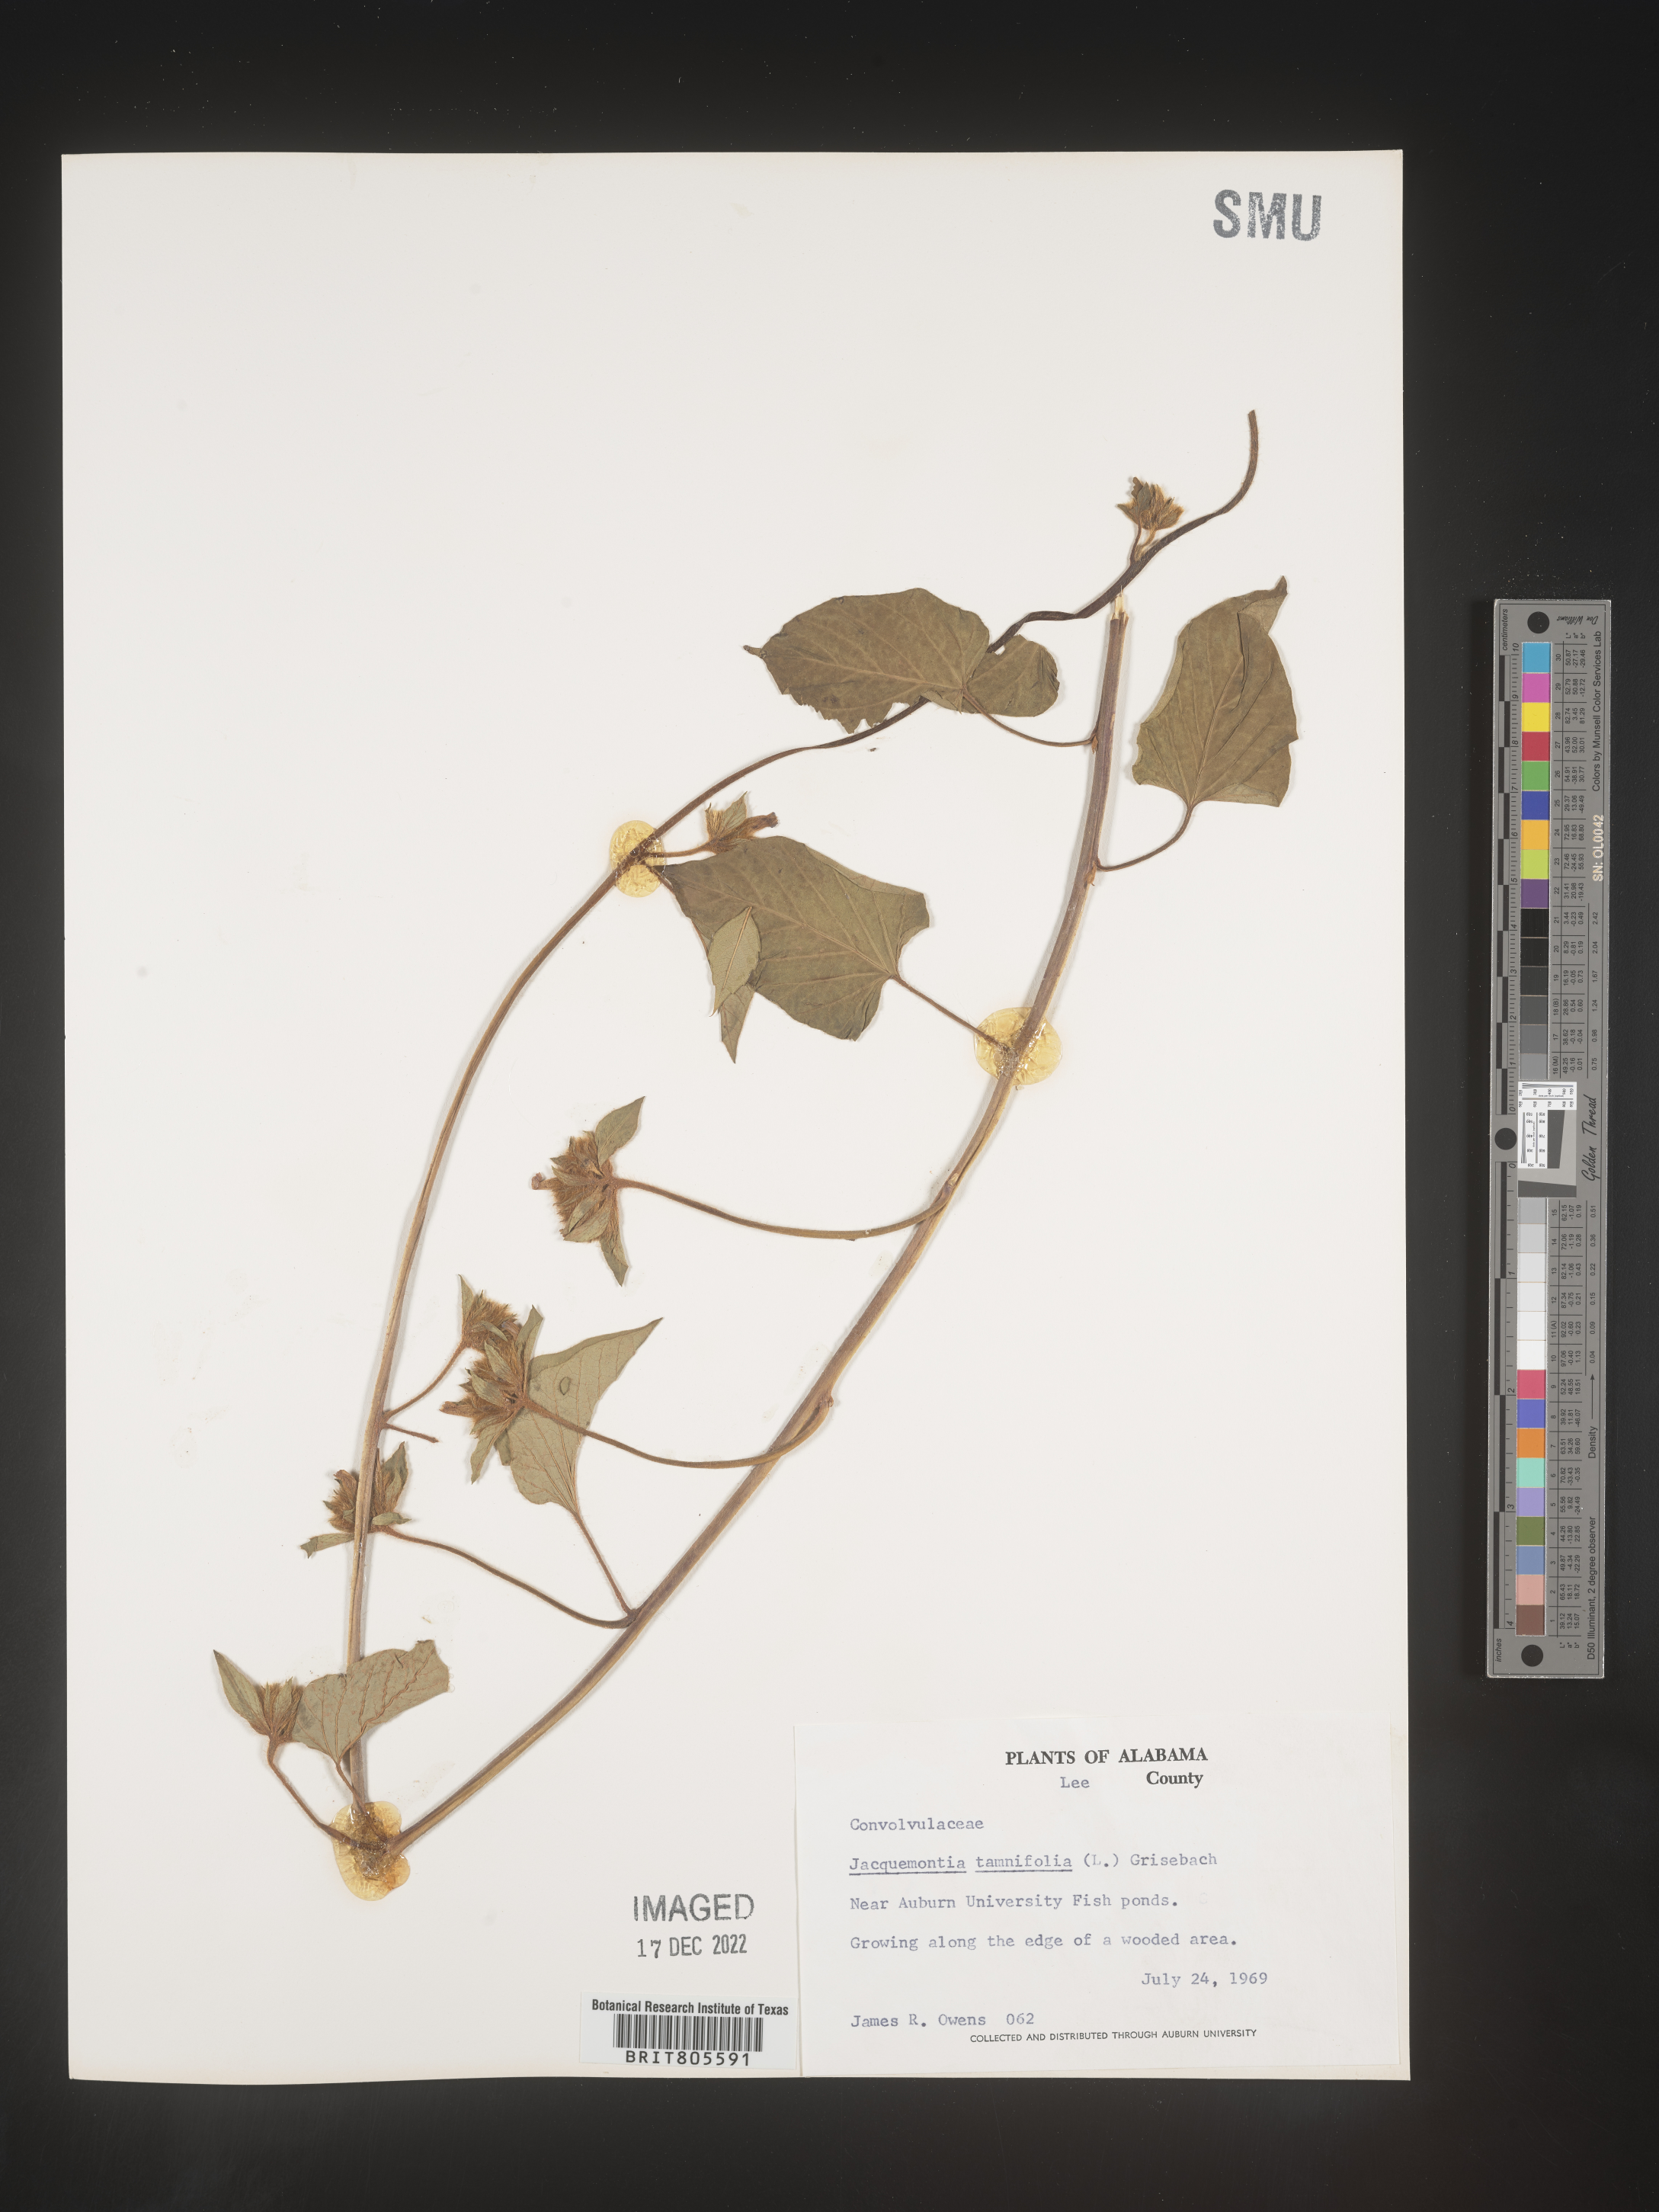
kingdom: Plantae
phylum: Tracheophyta
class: Magnoliopsida
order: Solanales
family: Convolvulaceae
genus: Jacquemontia
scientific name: Jacquemontia tamnifolia
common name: Hairy clustervine
